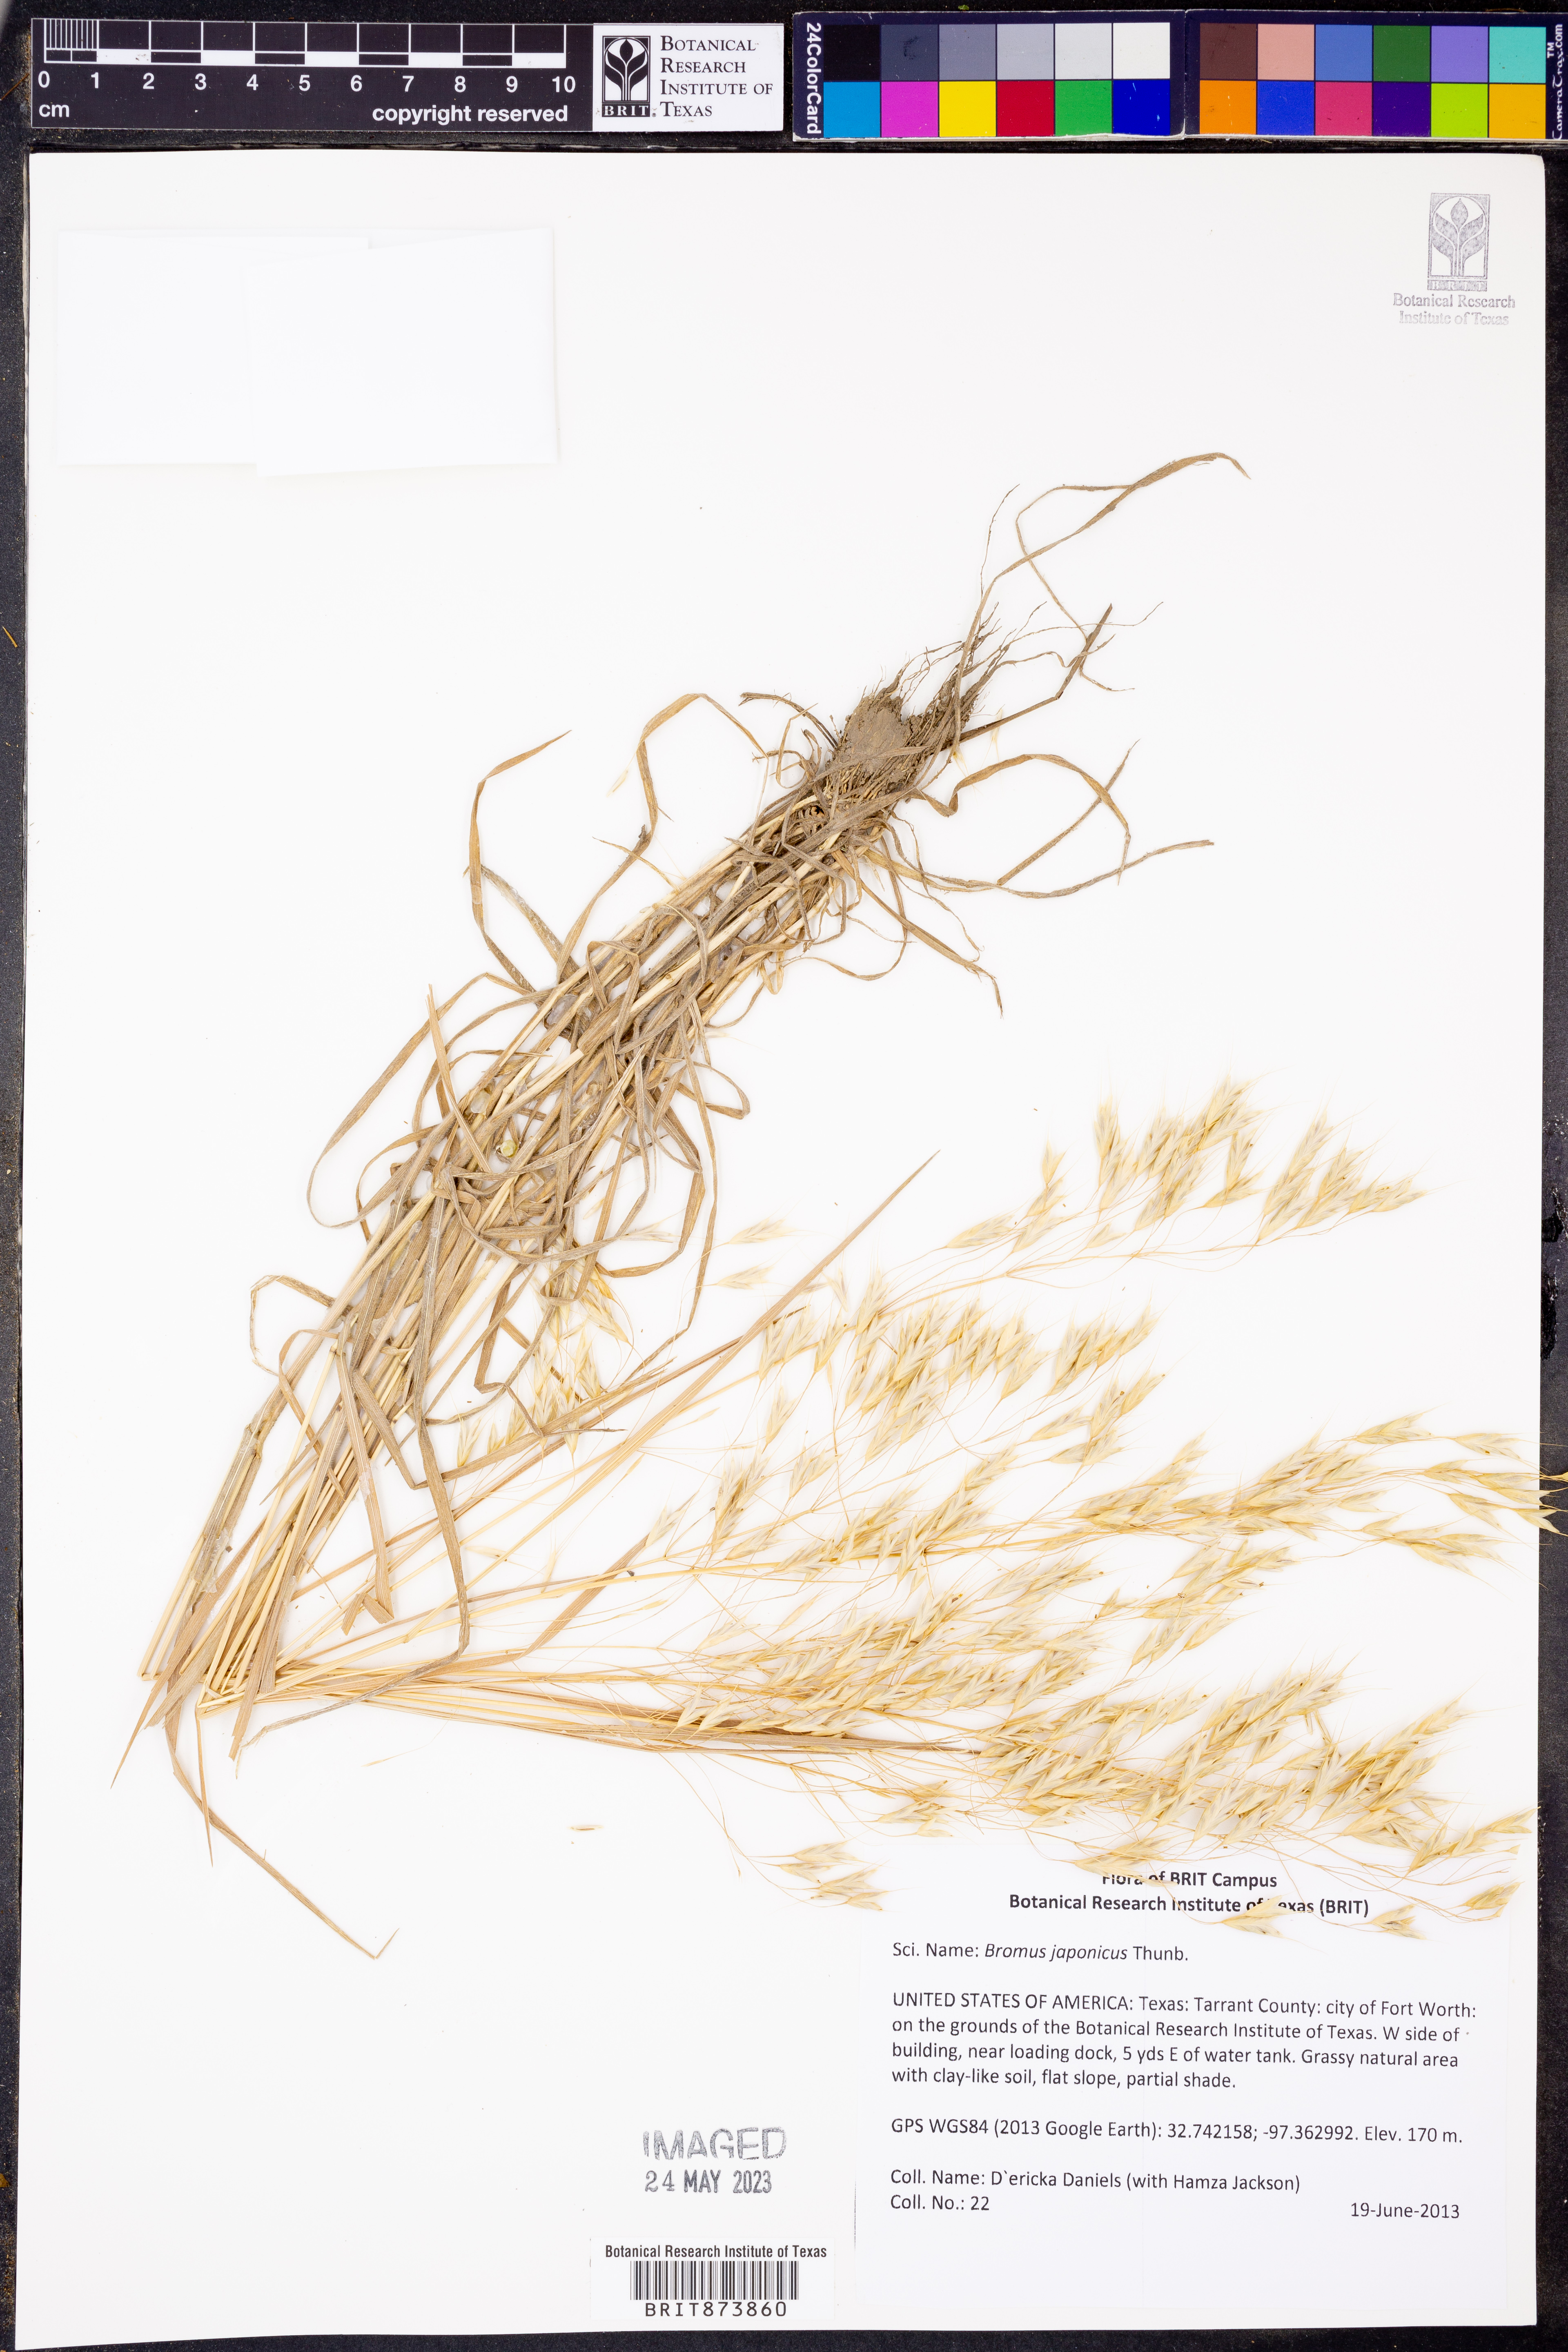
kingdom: Plantae
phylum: Tracheophyta
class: Liliopsida
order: Poales
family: Poaceae
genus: Bromus
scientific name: Bromus japonicus
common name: Japanese brome
